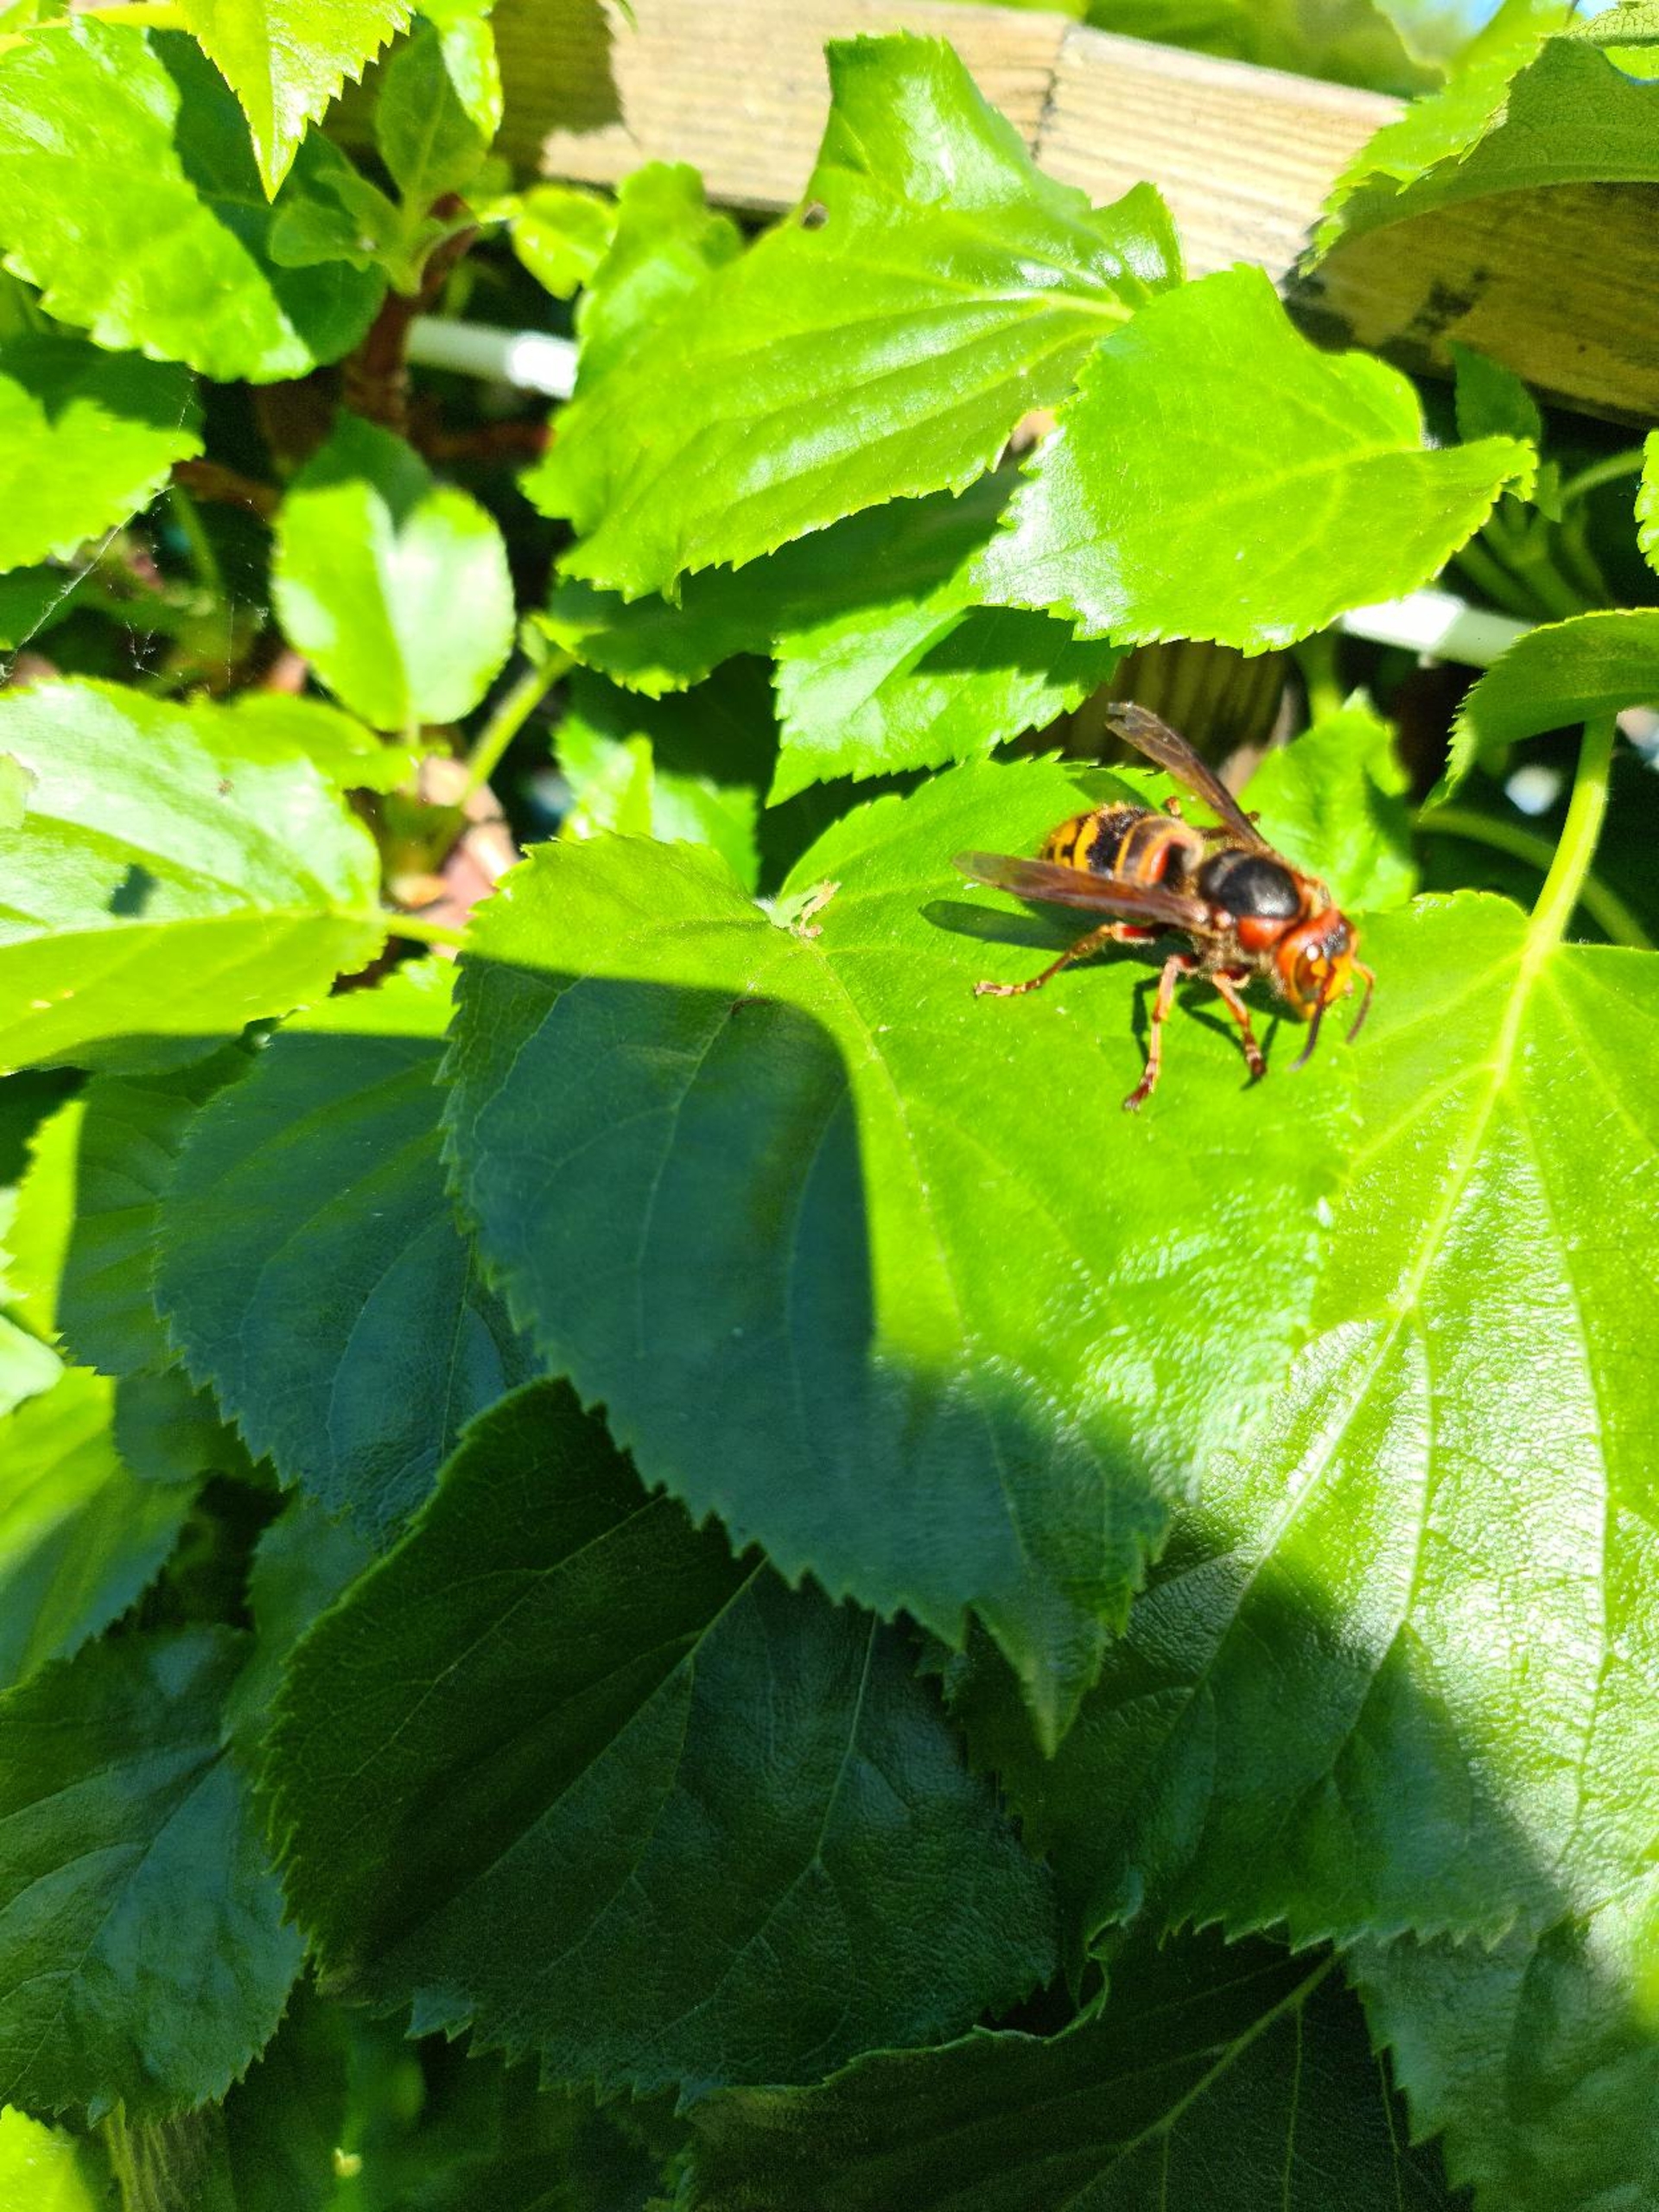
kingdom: Animalia
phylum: Arthropoda
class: Insecta
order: Hymenoptera
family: Vespidae
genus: Vespa
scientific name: Vespa crabro
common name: Stor gedehams
